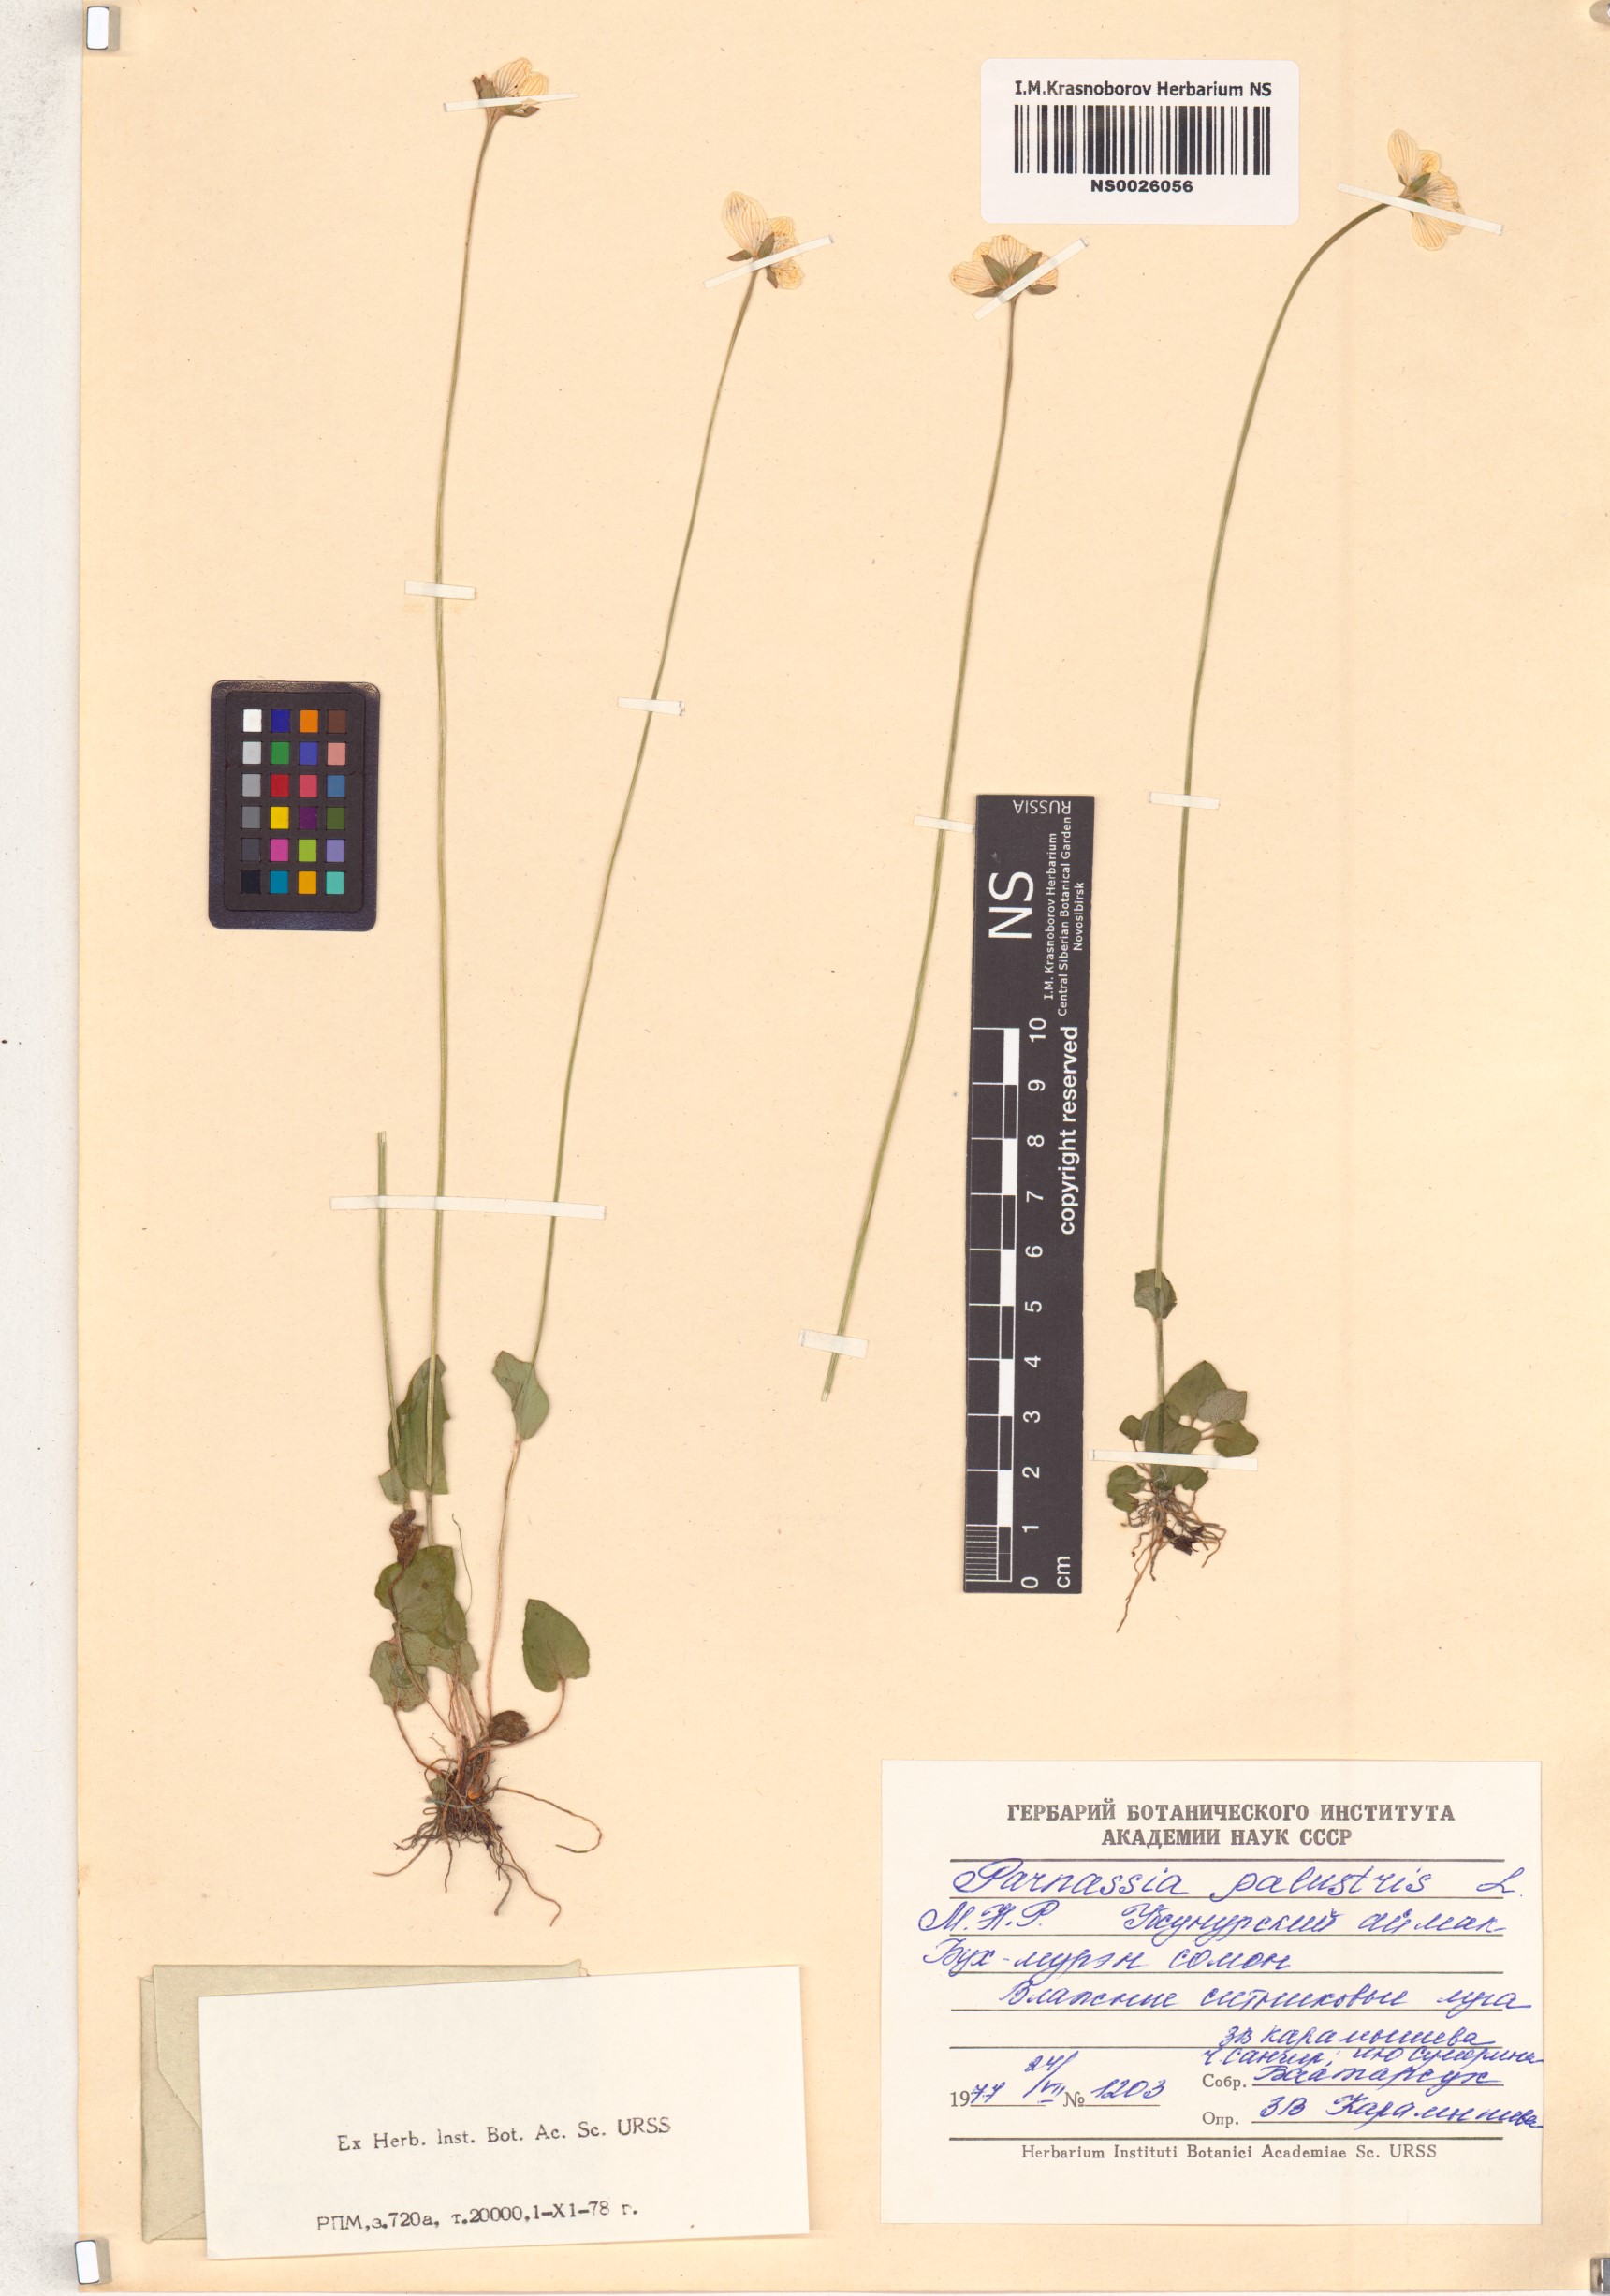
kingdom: Plantae
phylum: Tracheophyta
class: Magnoliopsida
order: Celastrales
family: Parnassiaceae
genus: Parnassia
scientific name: Parnassia palustris
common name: Grass-of-parnassus
